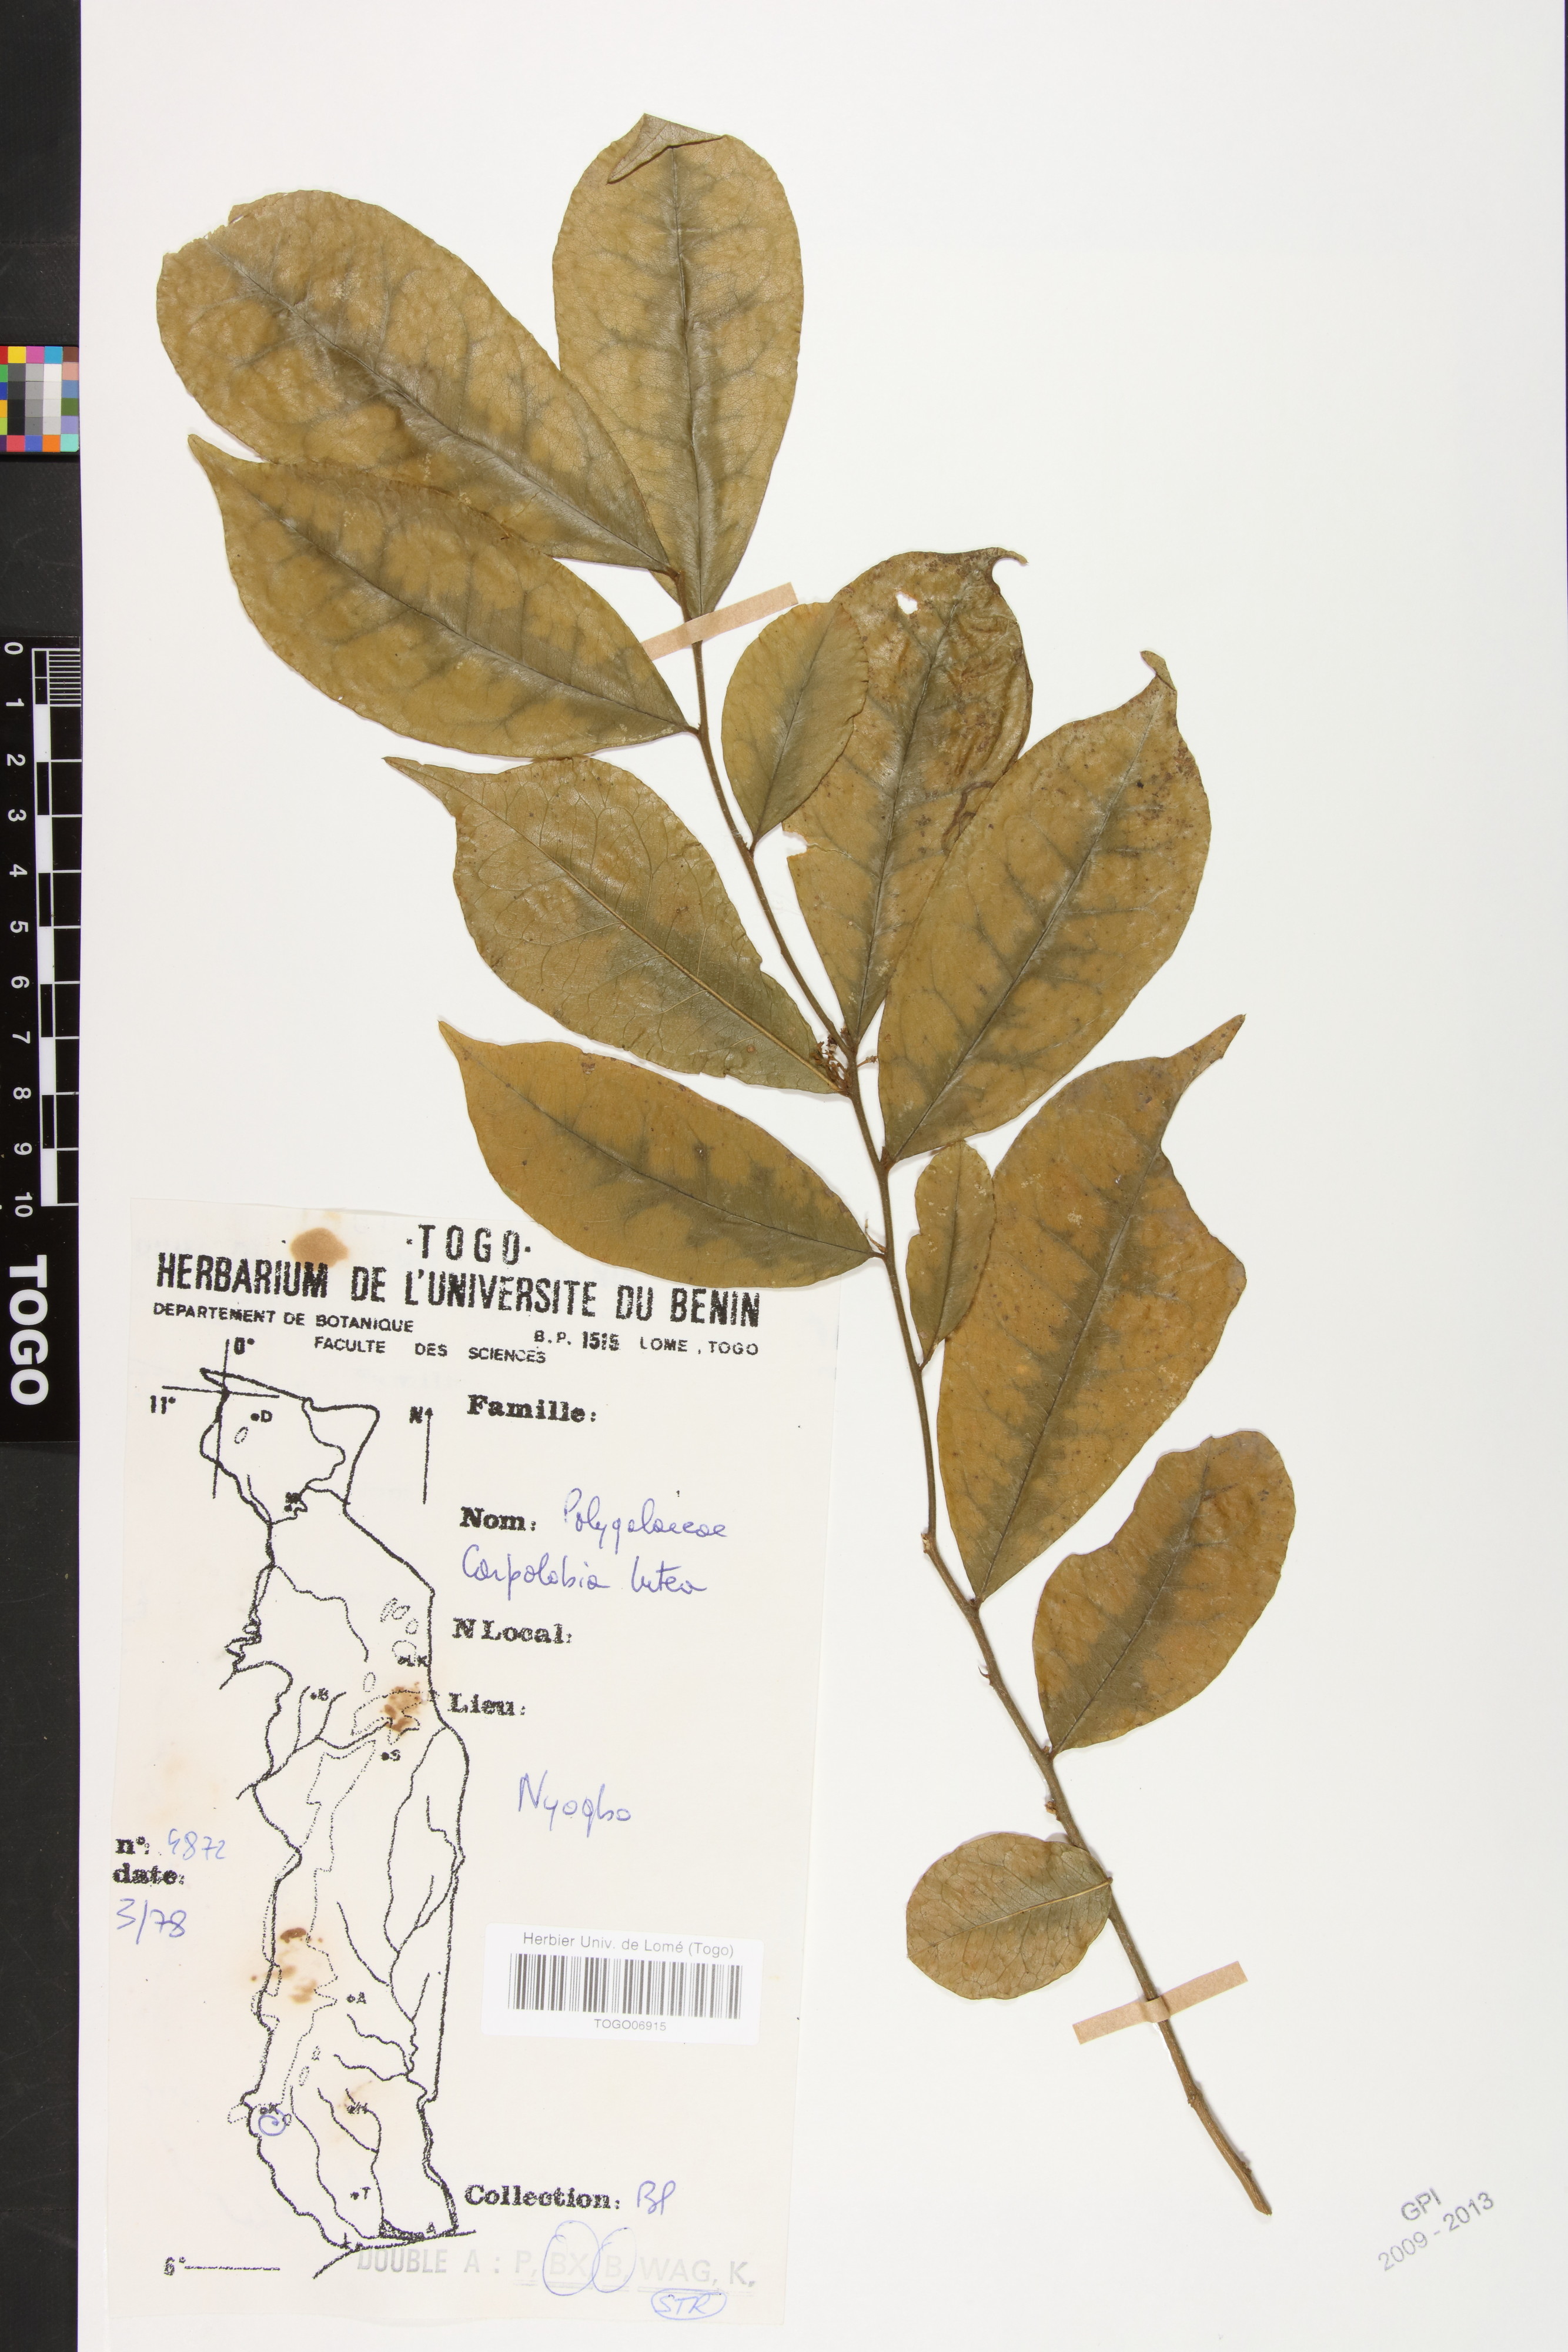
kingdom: Plantae
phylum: Tracheophyta
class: Magnoliopsida
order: Fabales
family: Polygalaceae
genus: Carpolobia
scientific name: Carpolobia lutea
